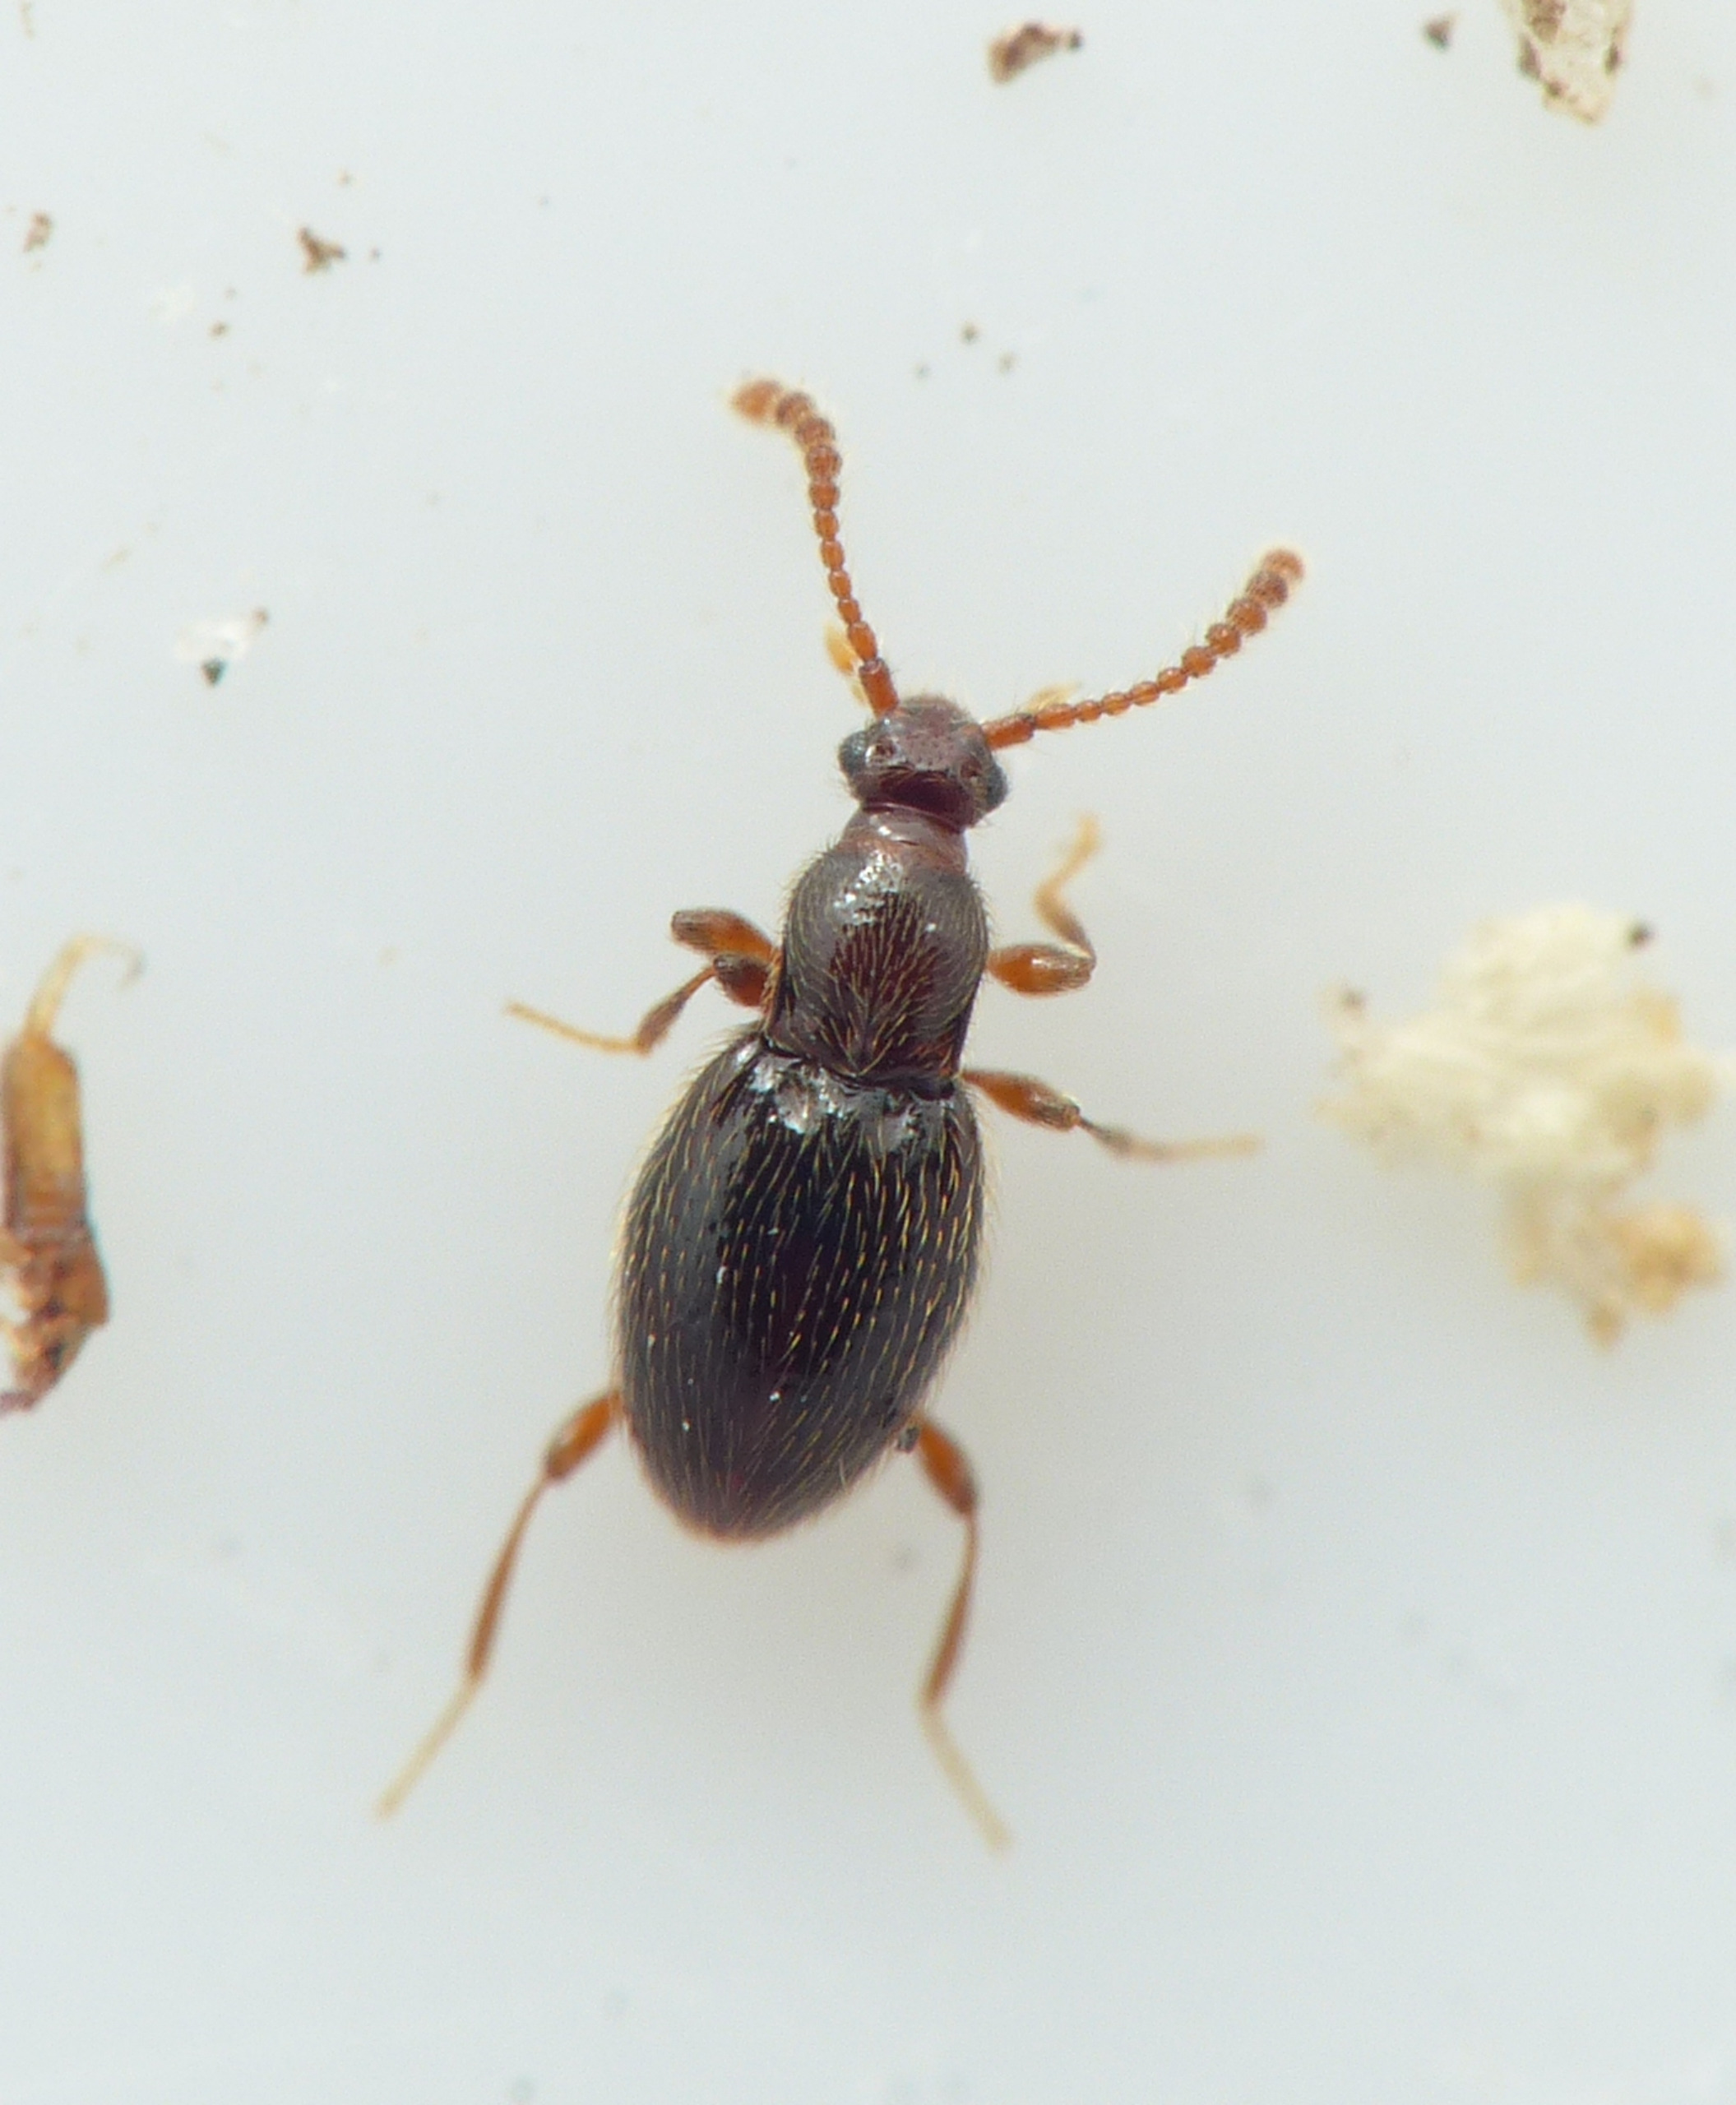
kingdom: Animalia
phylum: Arthropoda
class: Insecta
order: Coleoptera
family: Staphylinidae
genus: Neuraphes
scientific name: Neuraphes elongatulus
